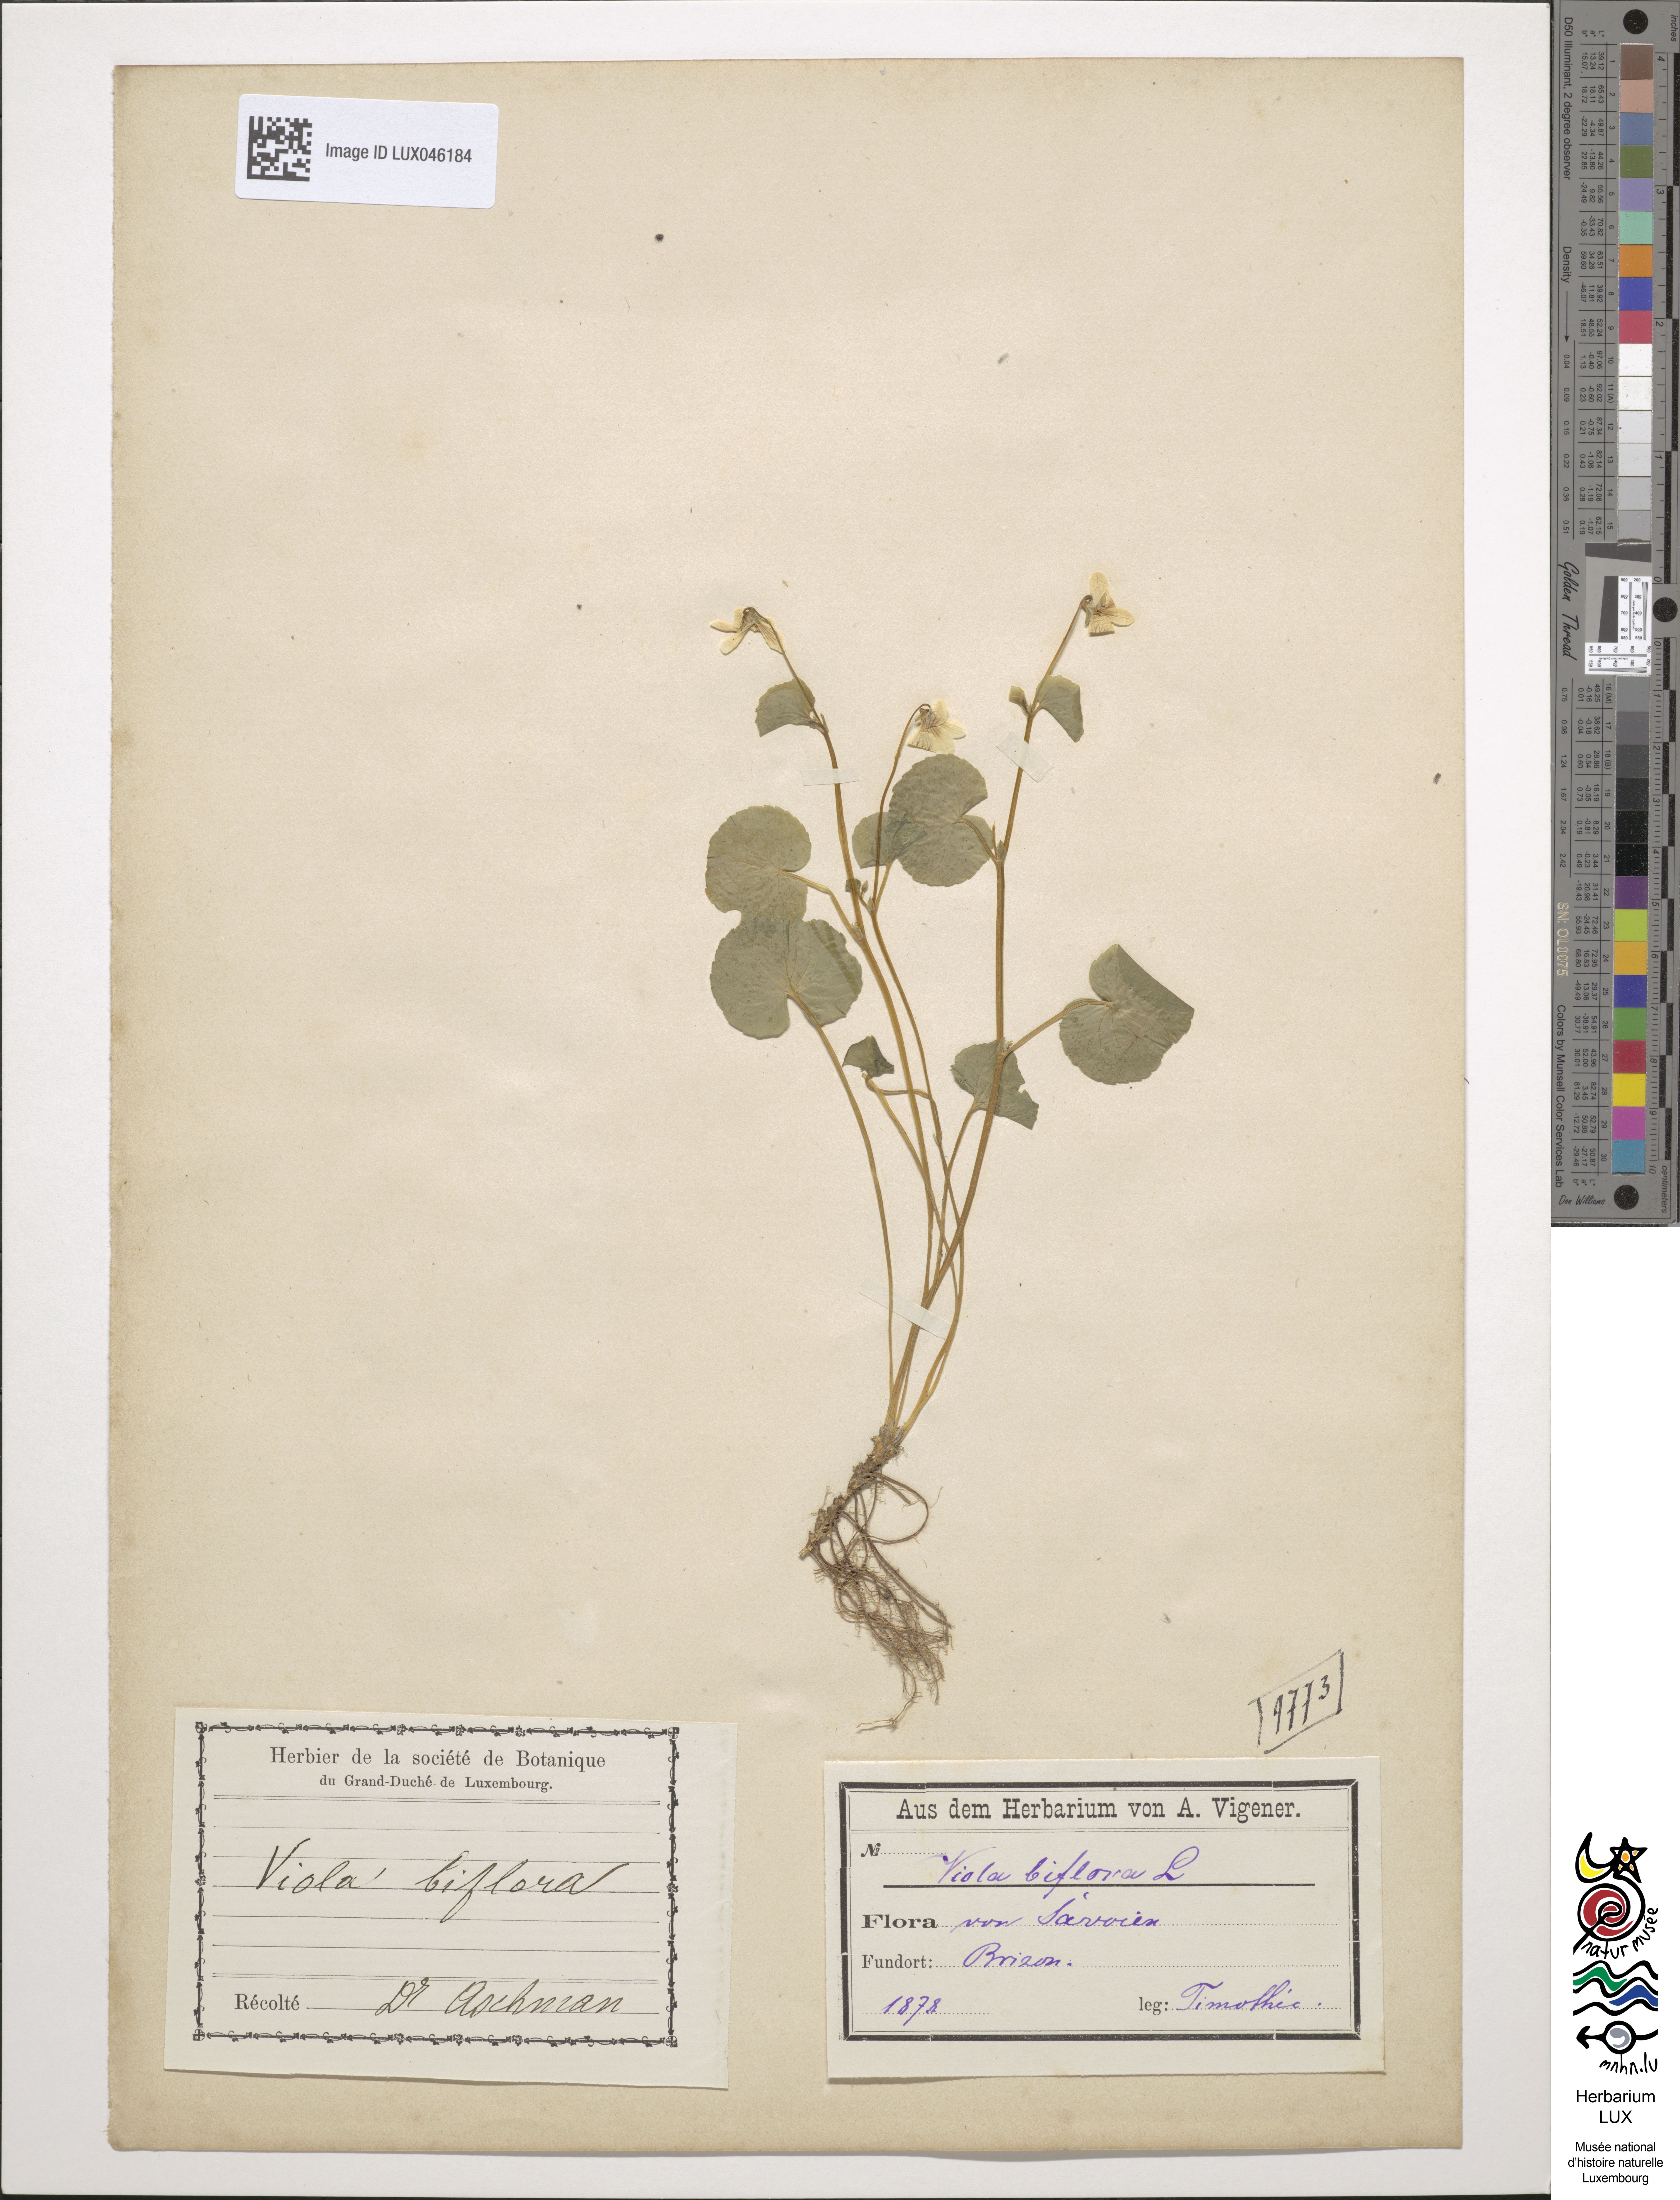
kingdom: Plantae
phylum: Tracheophyta
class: Magnoliopsida
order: Malpighiales
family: Violaceae
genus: Viola
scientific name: Viola biflora
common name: Alpine yellow violet
